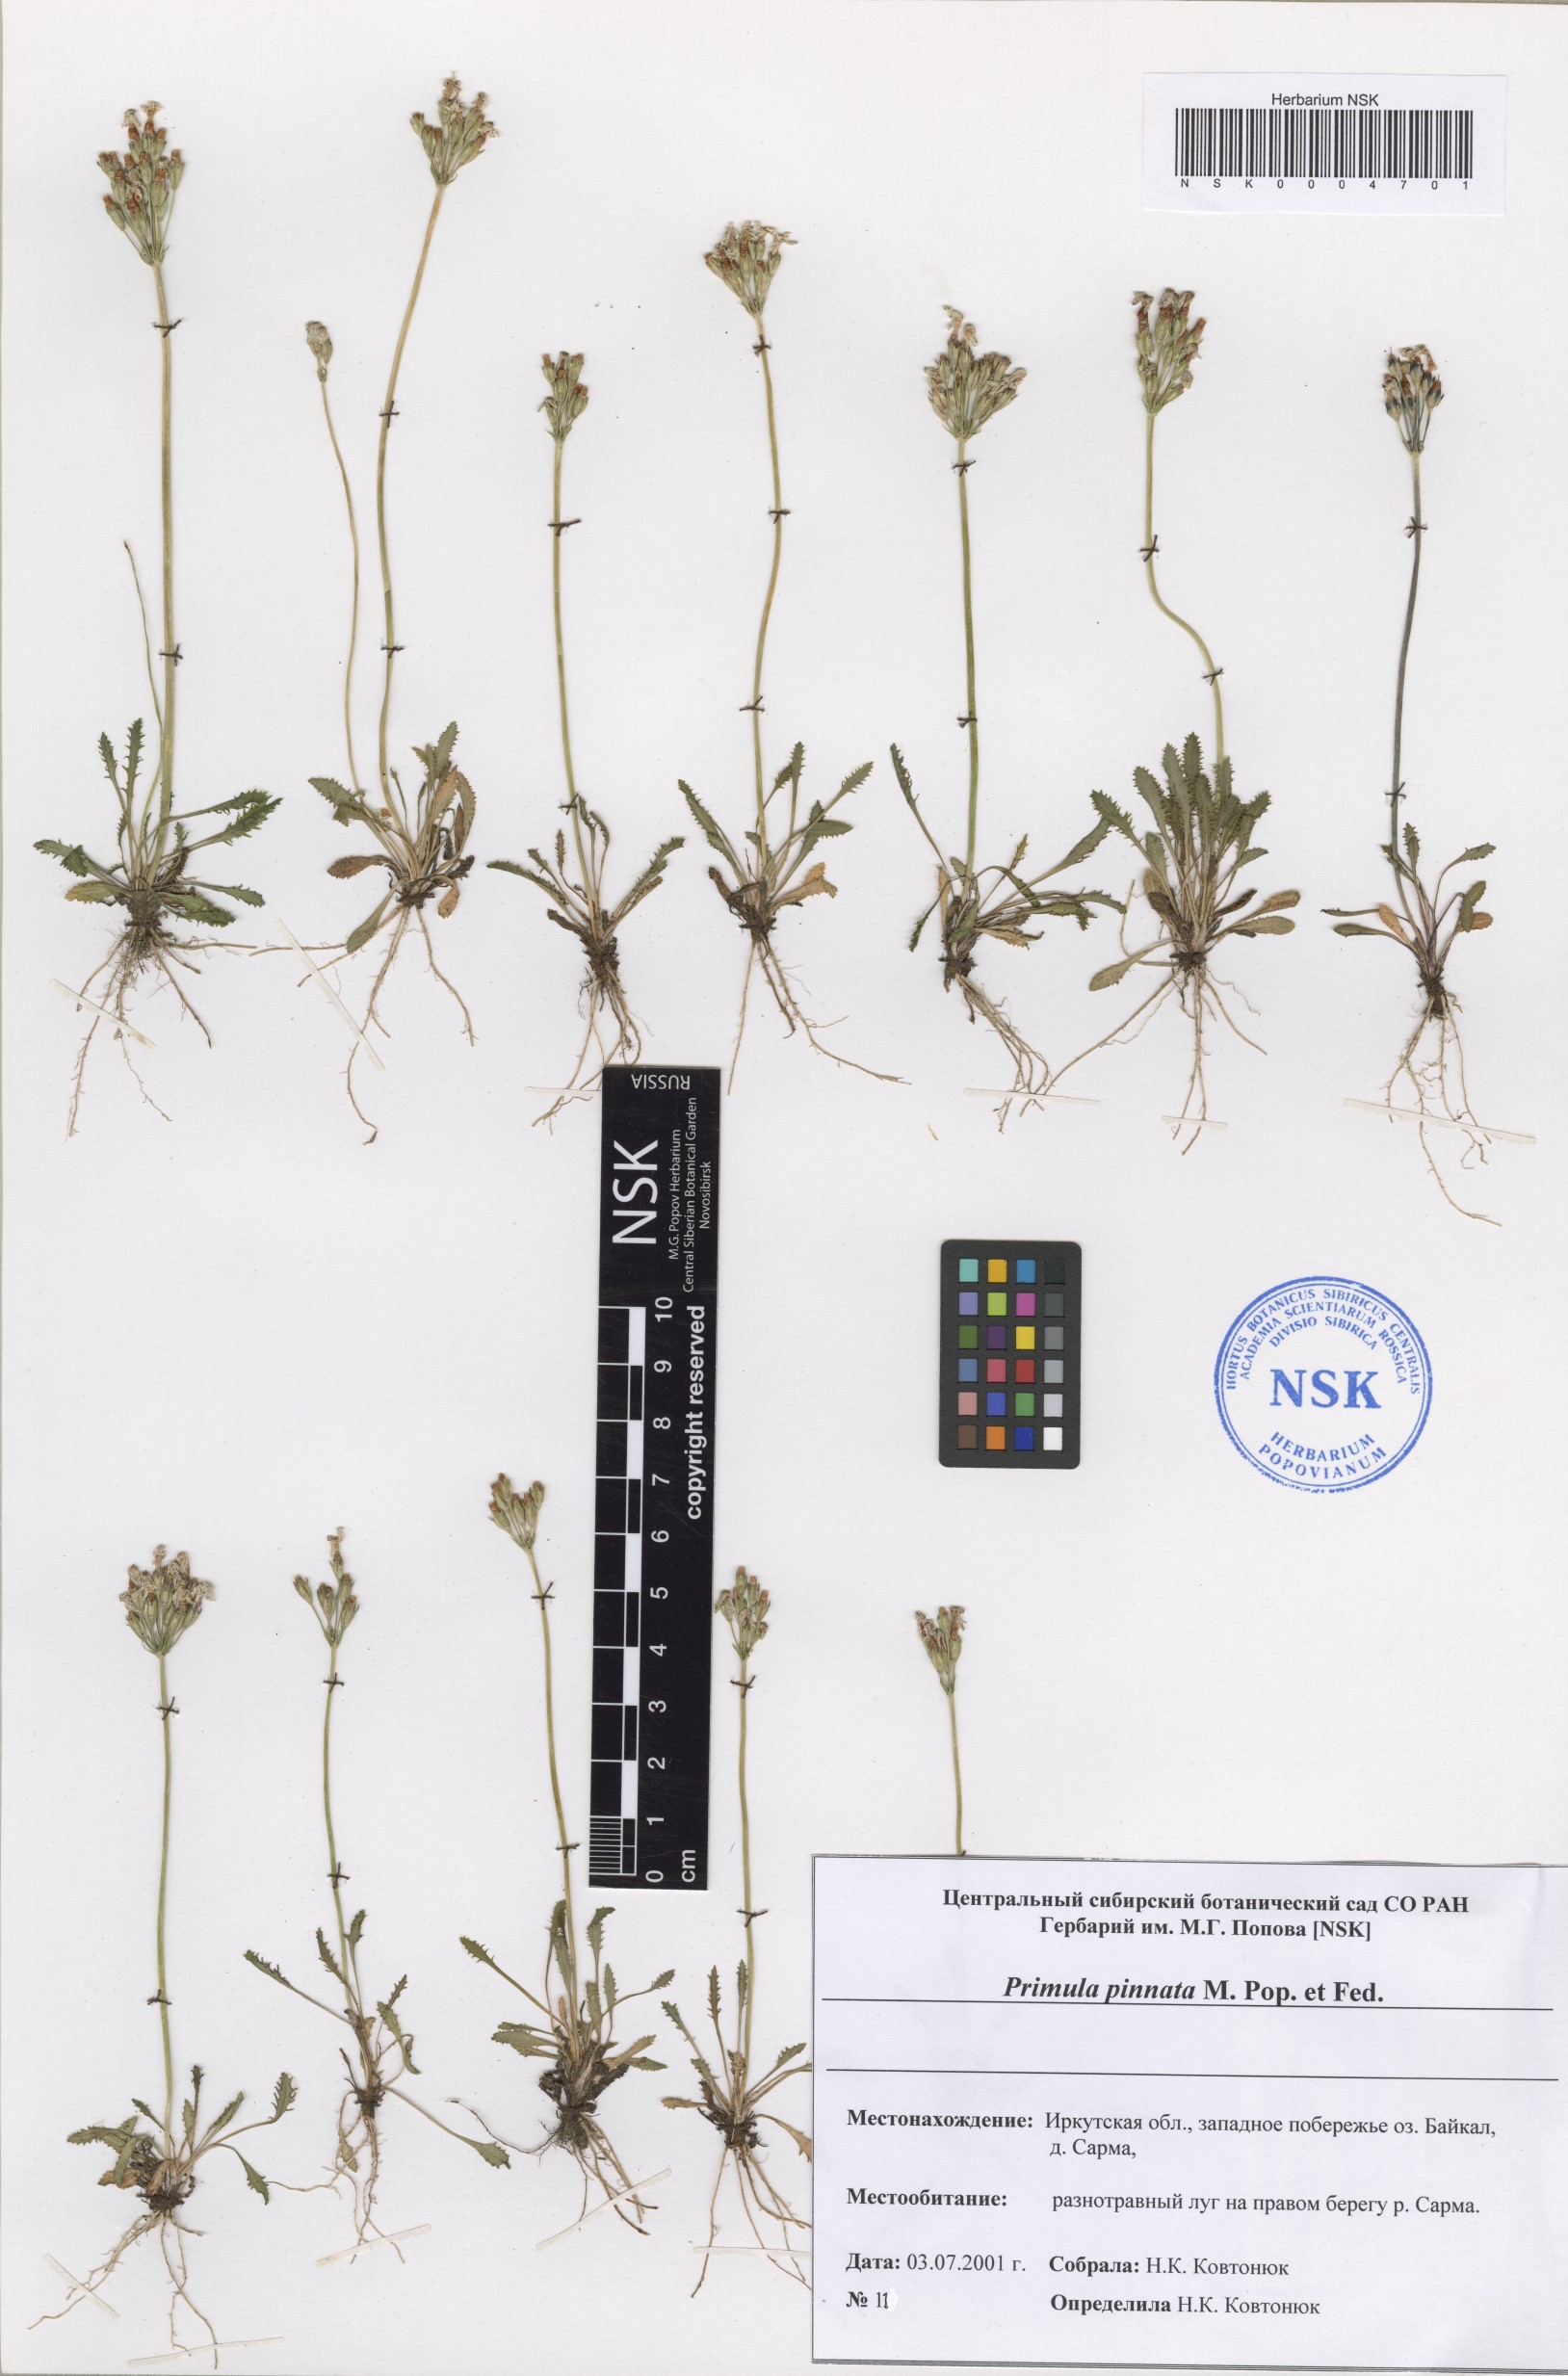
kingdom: Plantae
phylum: Tracheophyta
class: Magnoliopsida
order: Ericales
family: Primulaceae
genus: Primula
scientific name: Primula pinnata
